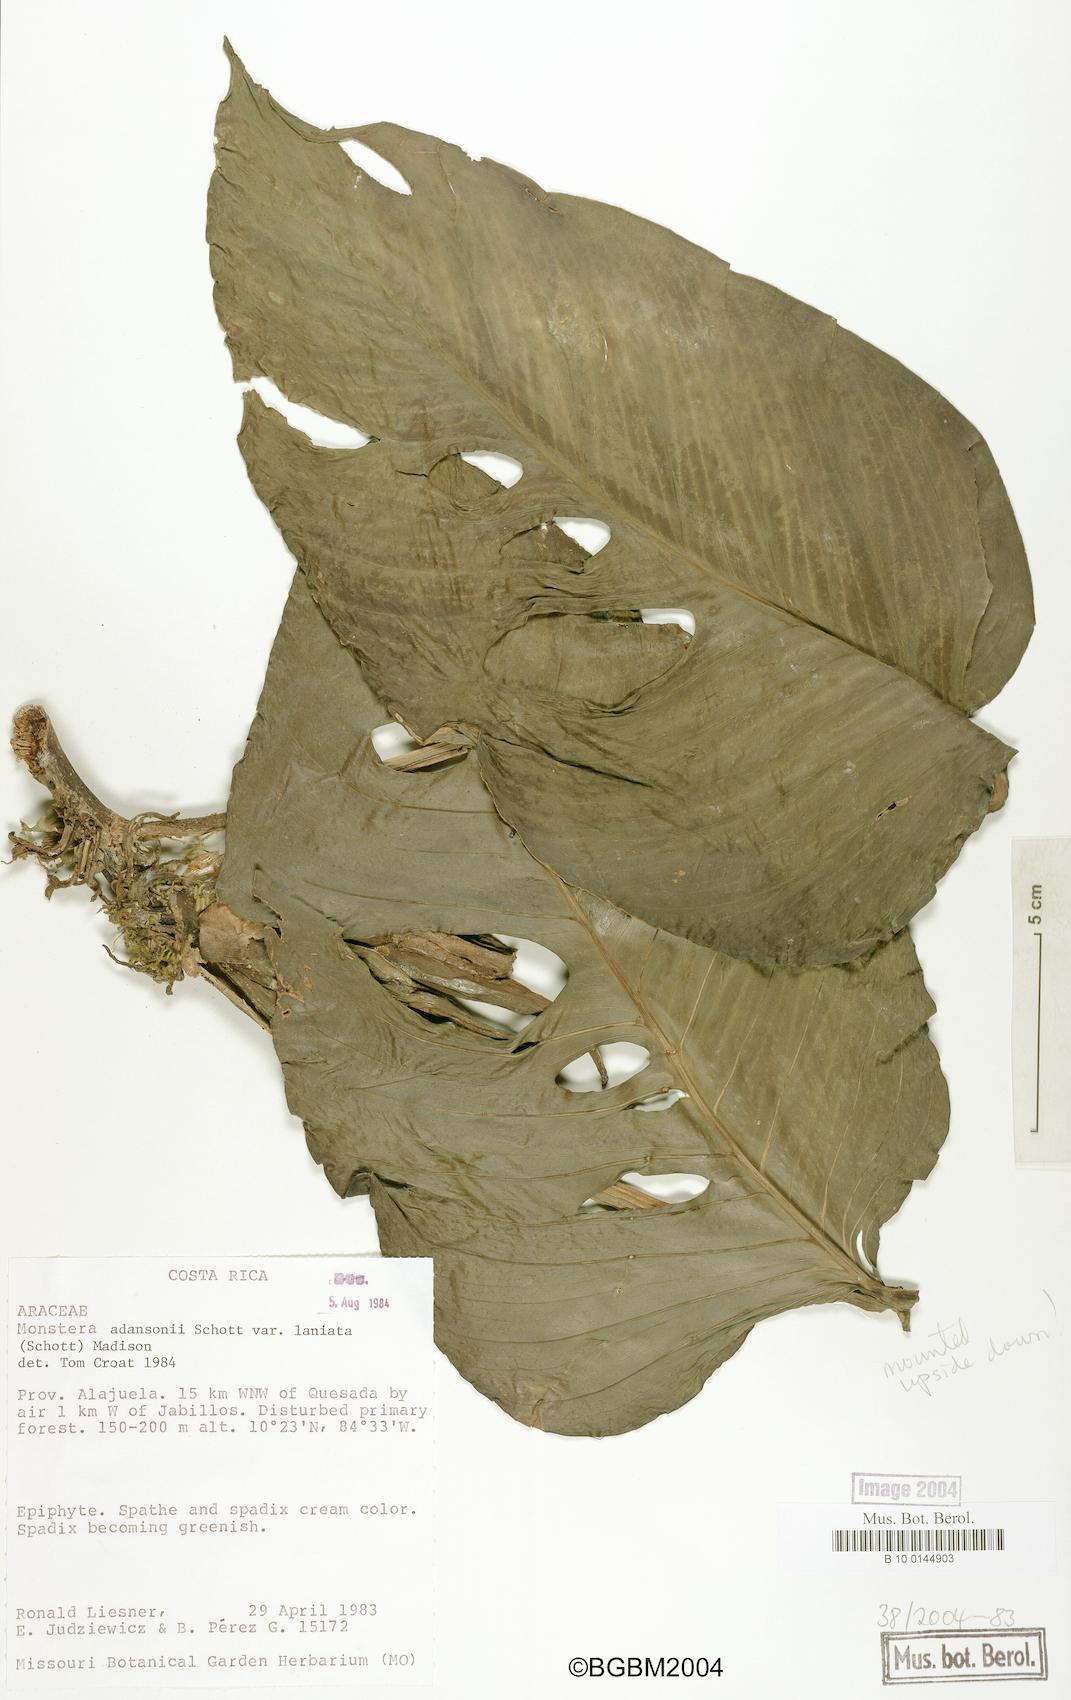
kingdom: Plantae
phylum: Tracheophyta
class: Liliopsida
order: Alismatales
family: Araceae
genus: Monstera
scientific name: Monstera adansonii
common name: Tarovine
